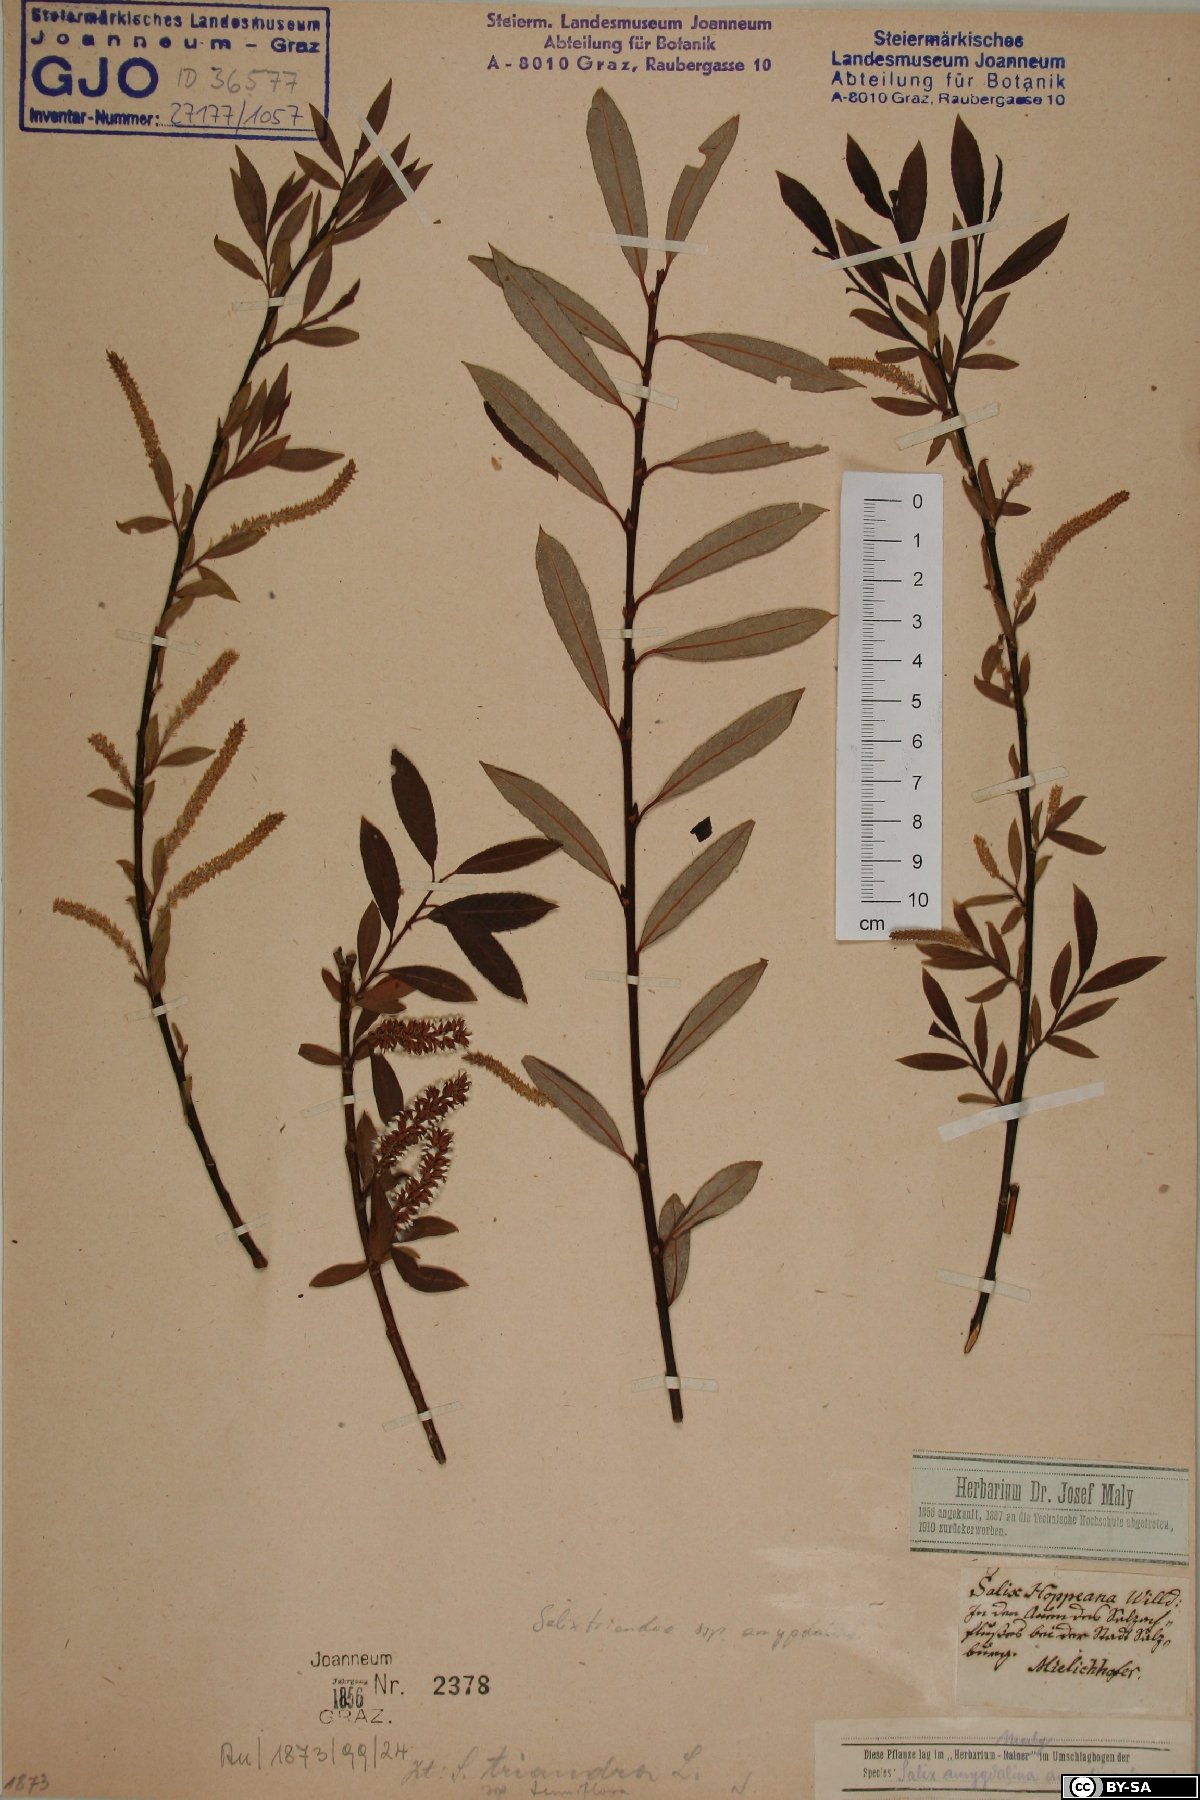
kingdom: Plantae
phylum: Tracheophyta
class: Magnoliopsida
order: Malpighiales
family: Salicaceae
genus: Salix
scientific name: Salix triandra
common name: Almond willow
